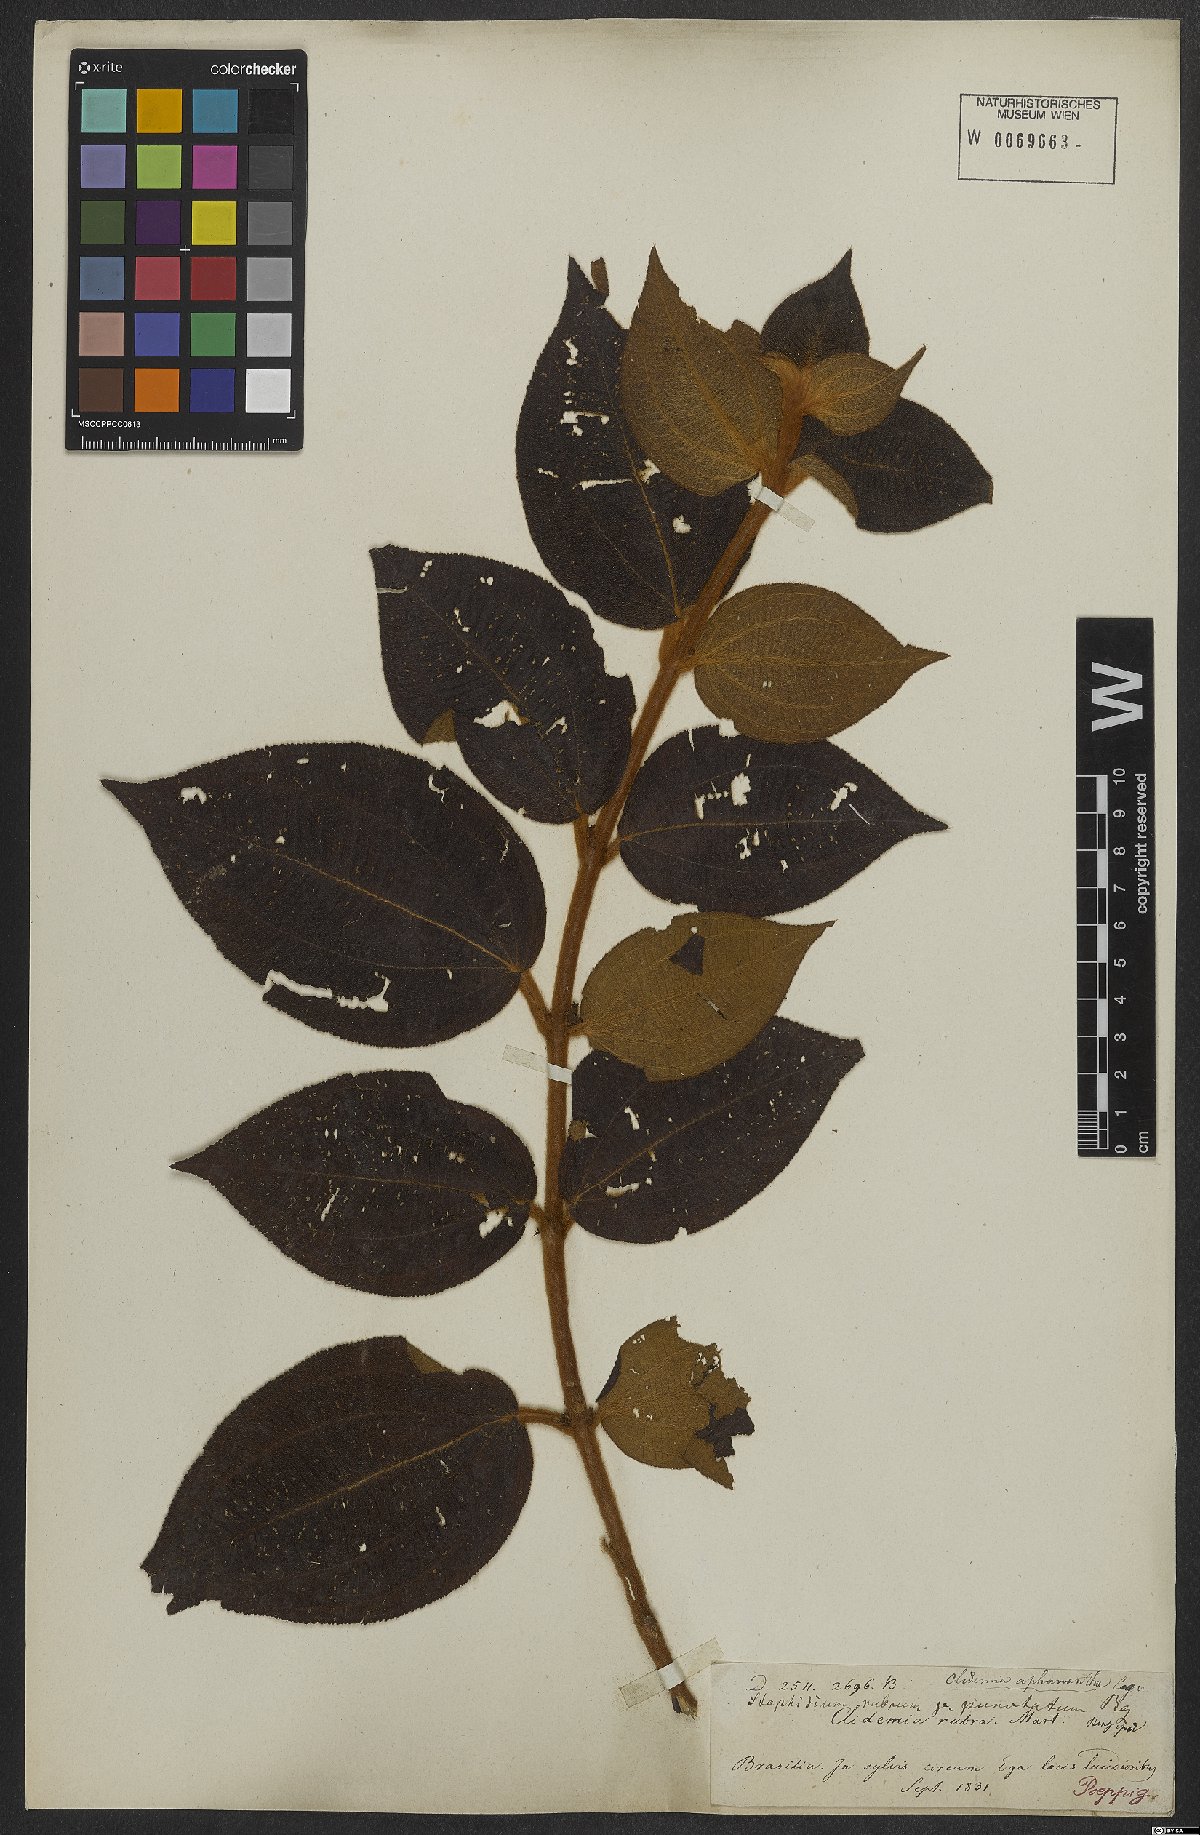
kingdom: Plantae
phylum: Tracheophyta
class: Magnoliopsida
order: Myrtales
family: Melastomataceae
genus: Miconia
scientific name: Miconia aphanantha
